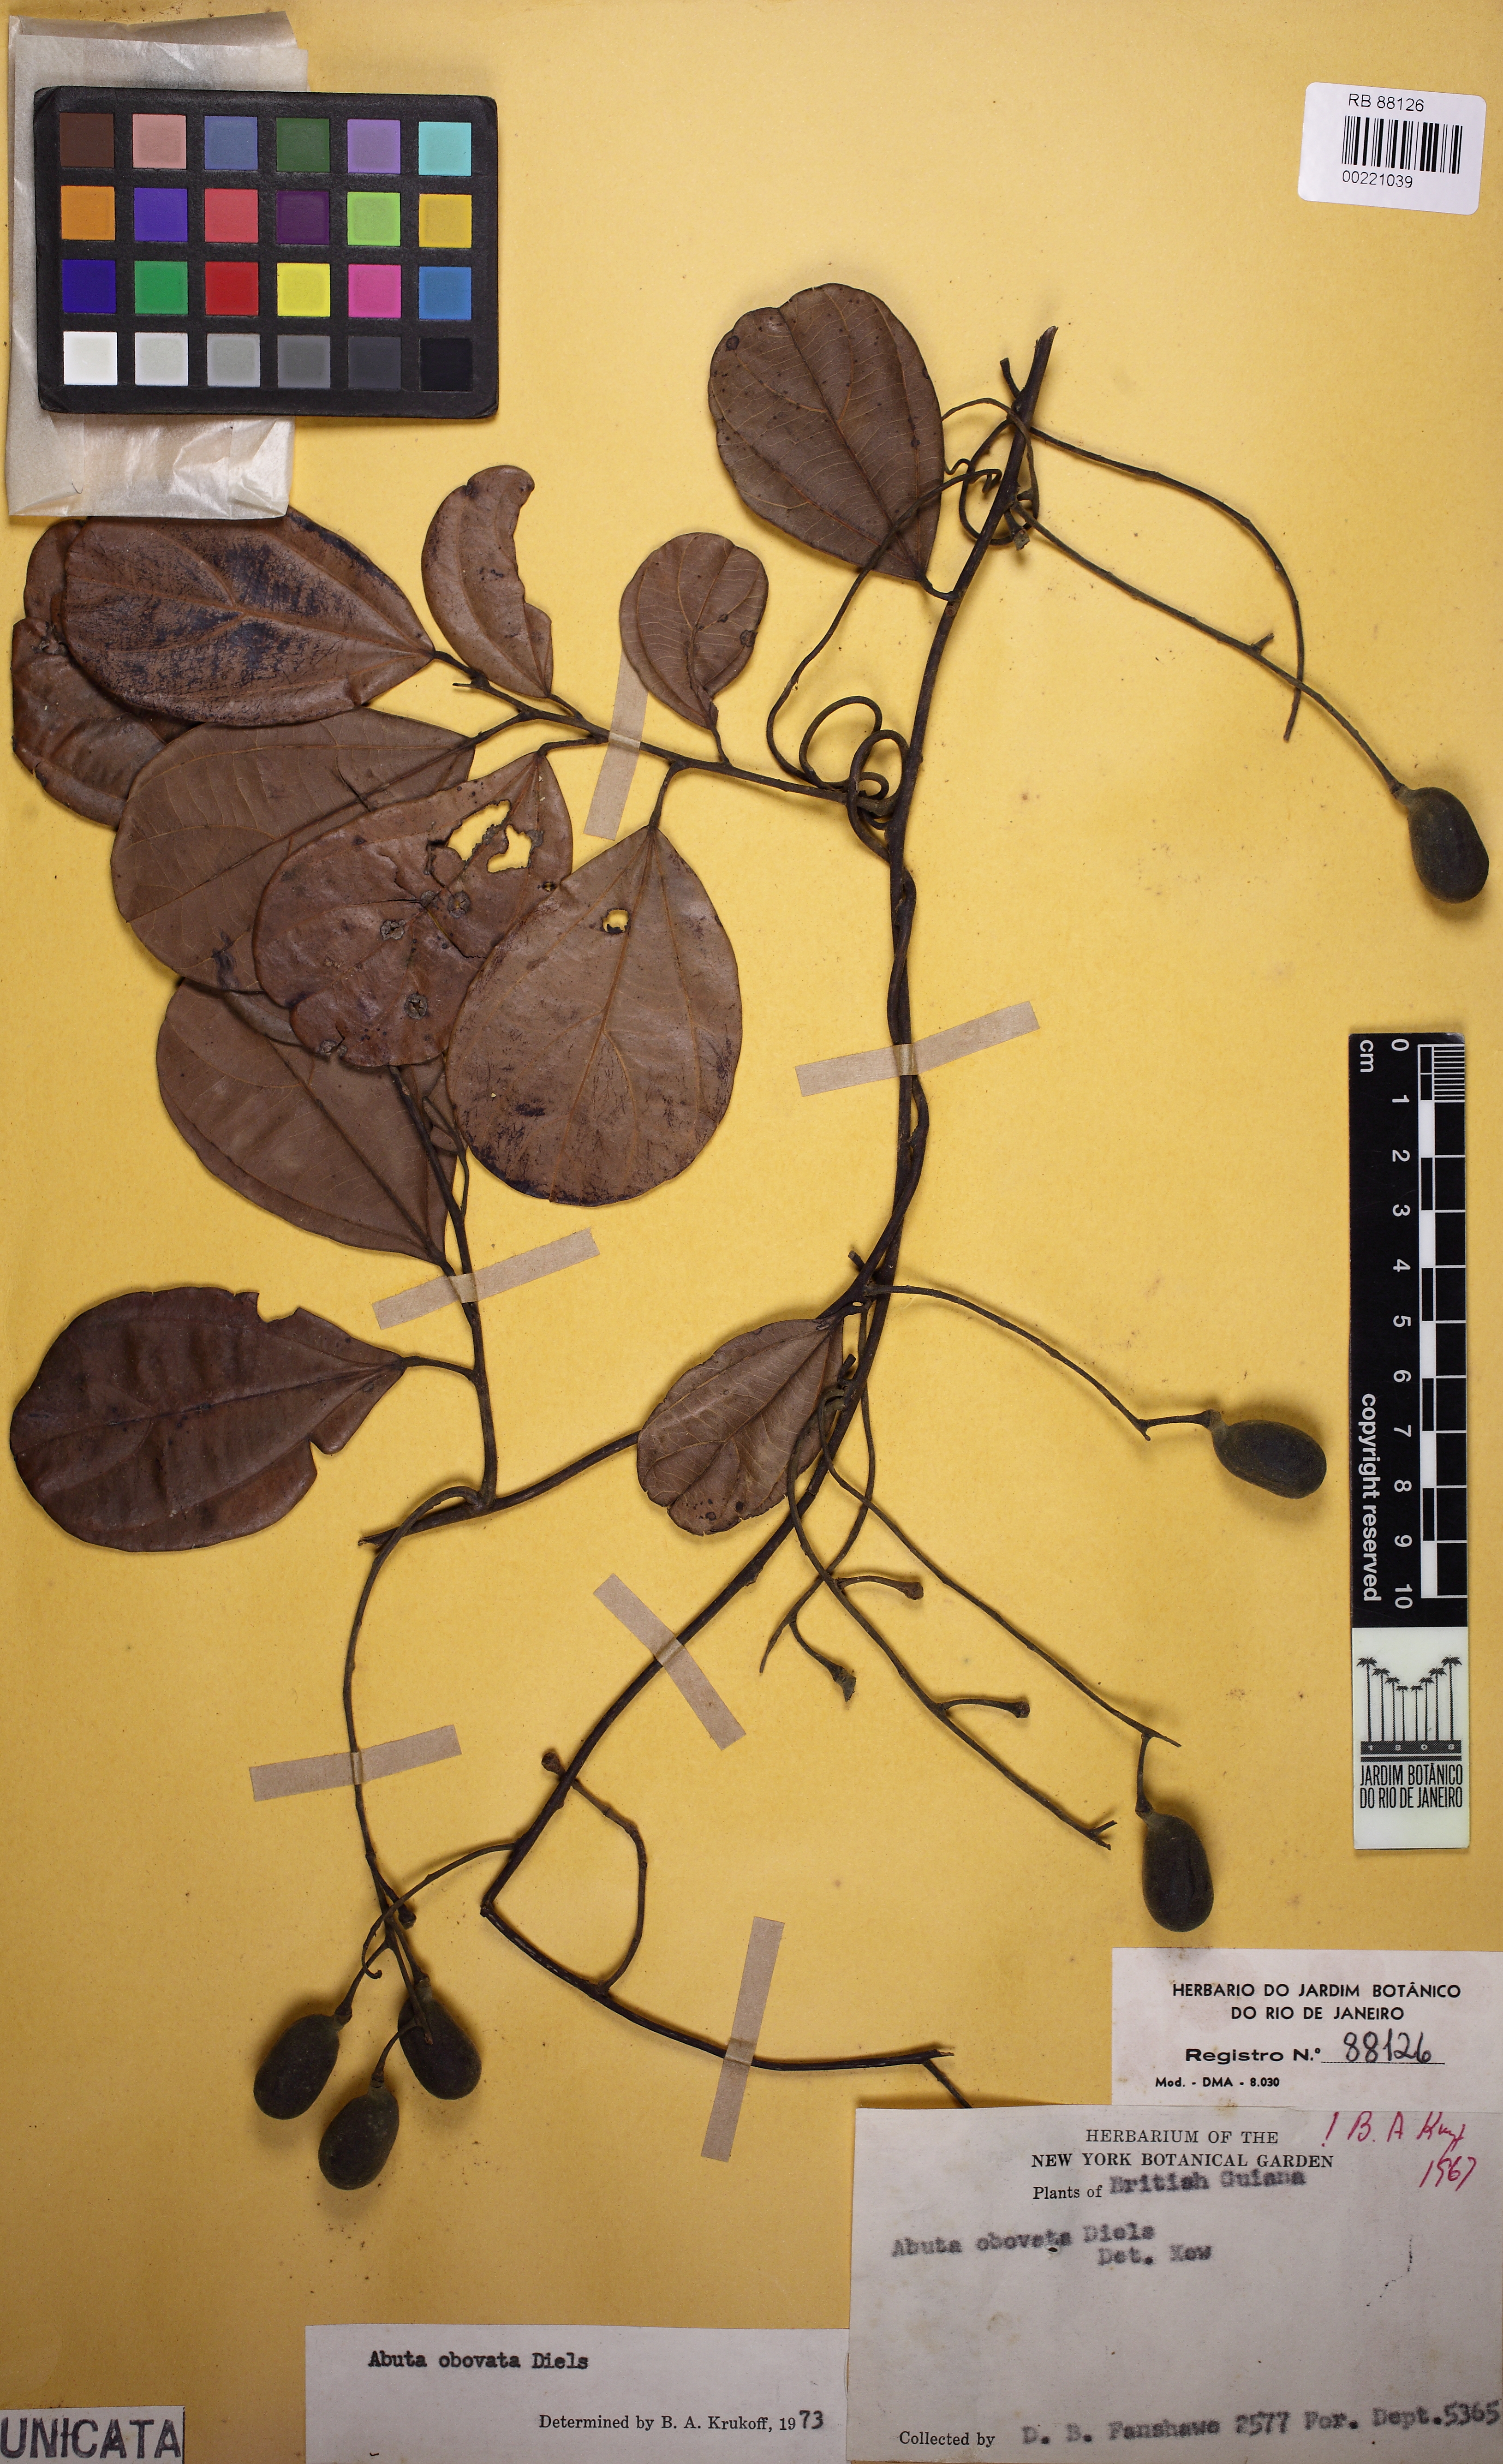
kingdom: Plantae
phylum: Tracheophyta
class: Magnoliopsida
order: Ranunculales
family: Menispermaceae
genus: Abuta
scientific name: Abuta obovata
